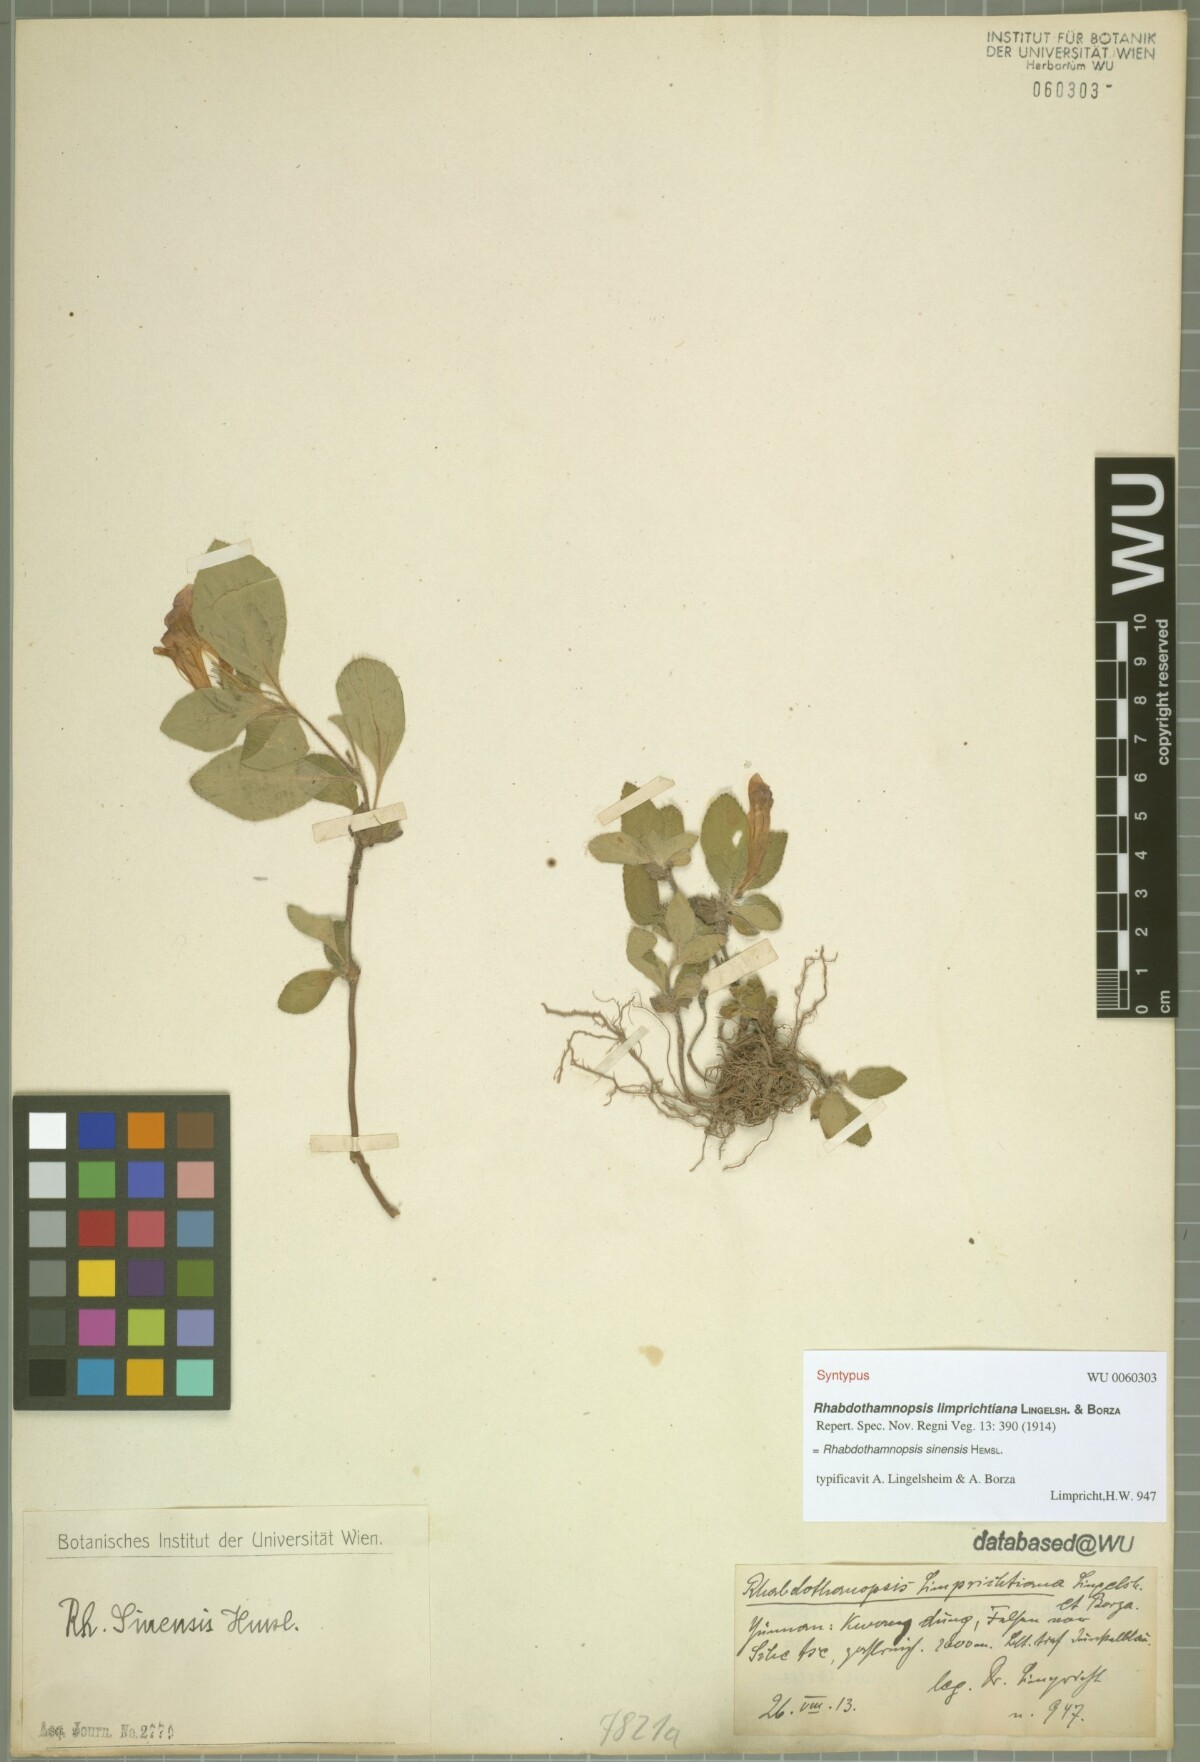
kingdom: Plantae
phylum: Tracheophyta
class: Magnoliopsida
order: Lamiales
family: Gesneriaceae
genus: Rhabdothamnopsis
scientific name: Rhabdothamnopsis sinensis
